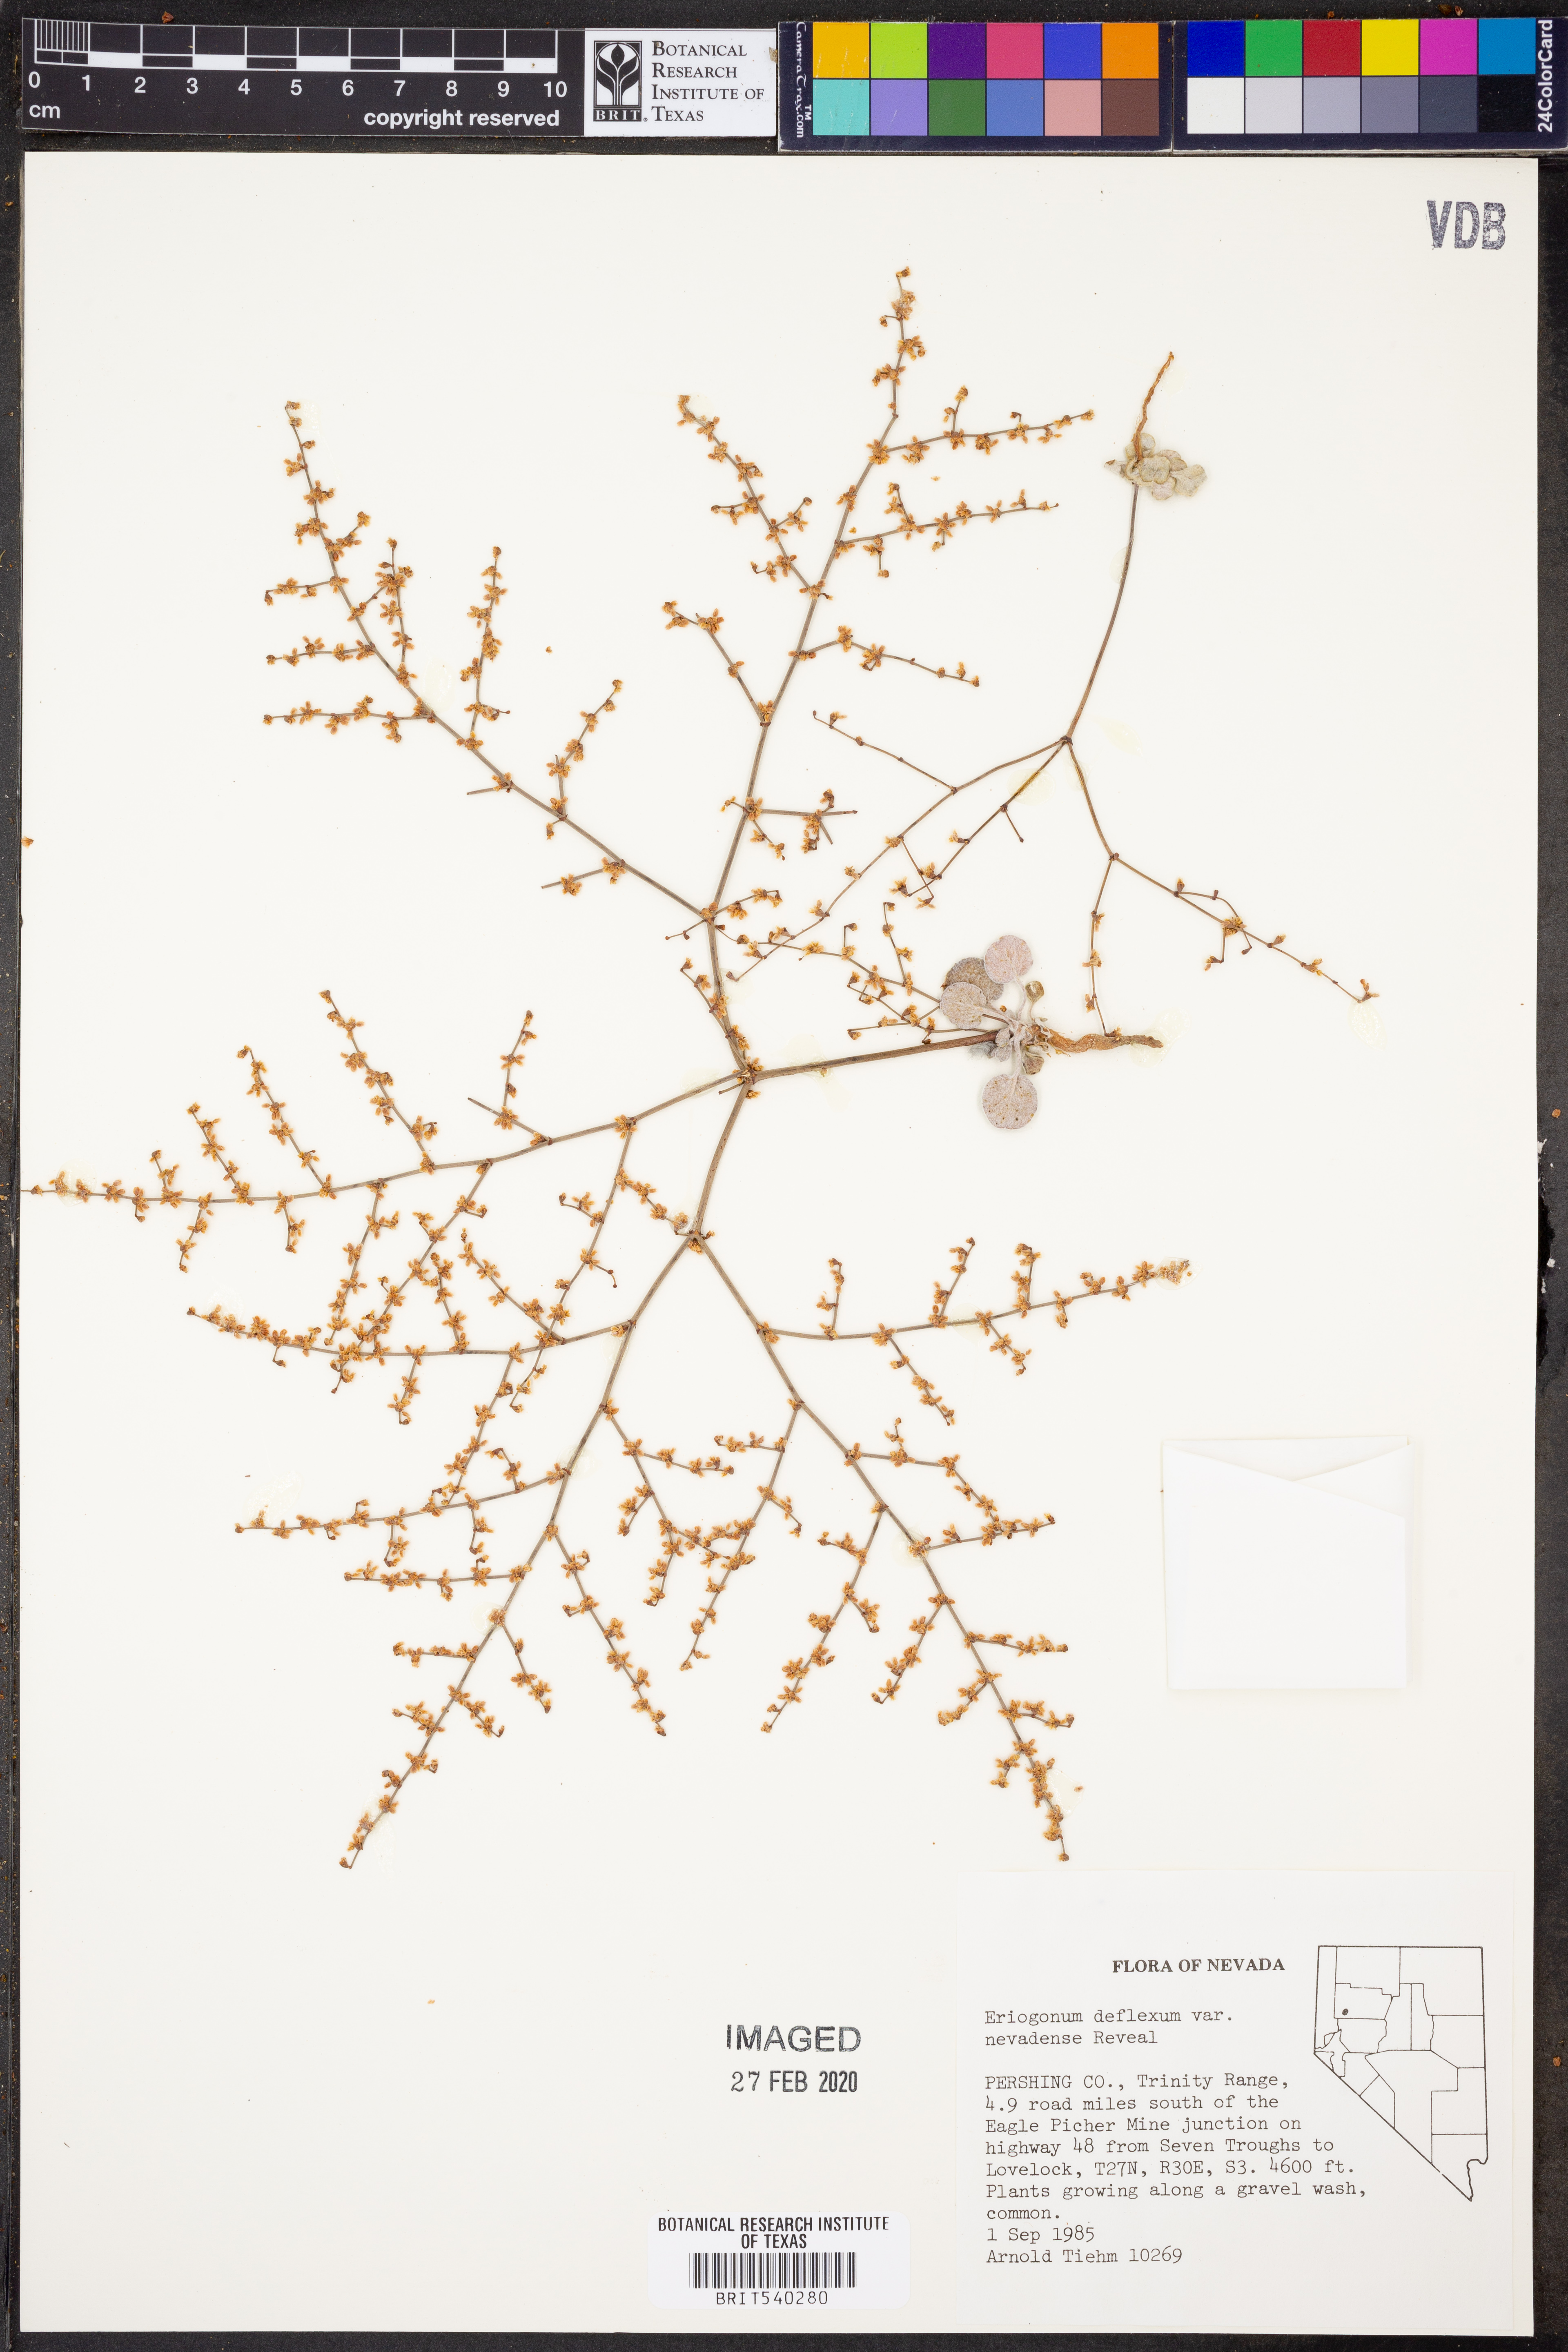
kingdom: Plantae
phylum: Tracheophyta
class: Magnoliopsida
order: Caryophyllales
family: Polygonaceae
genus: Eriogonum
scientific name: Eriogonum deflexum
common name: Skeleton-weed
